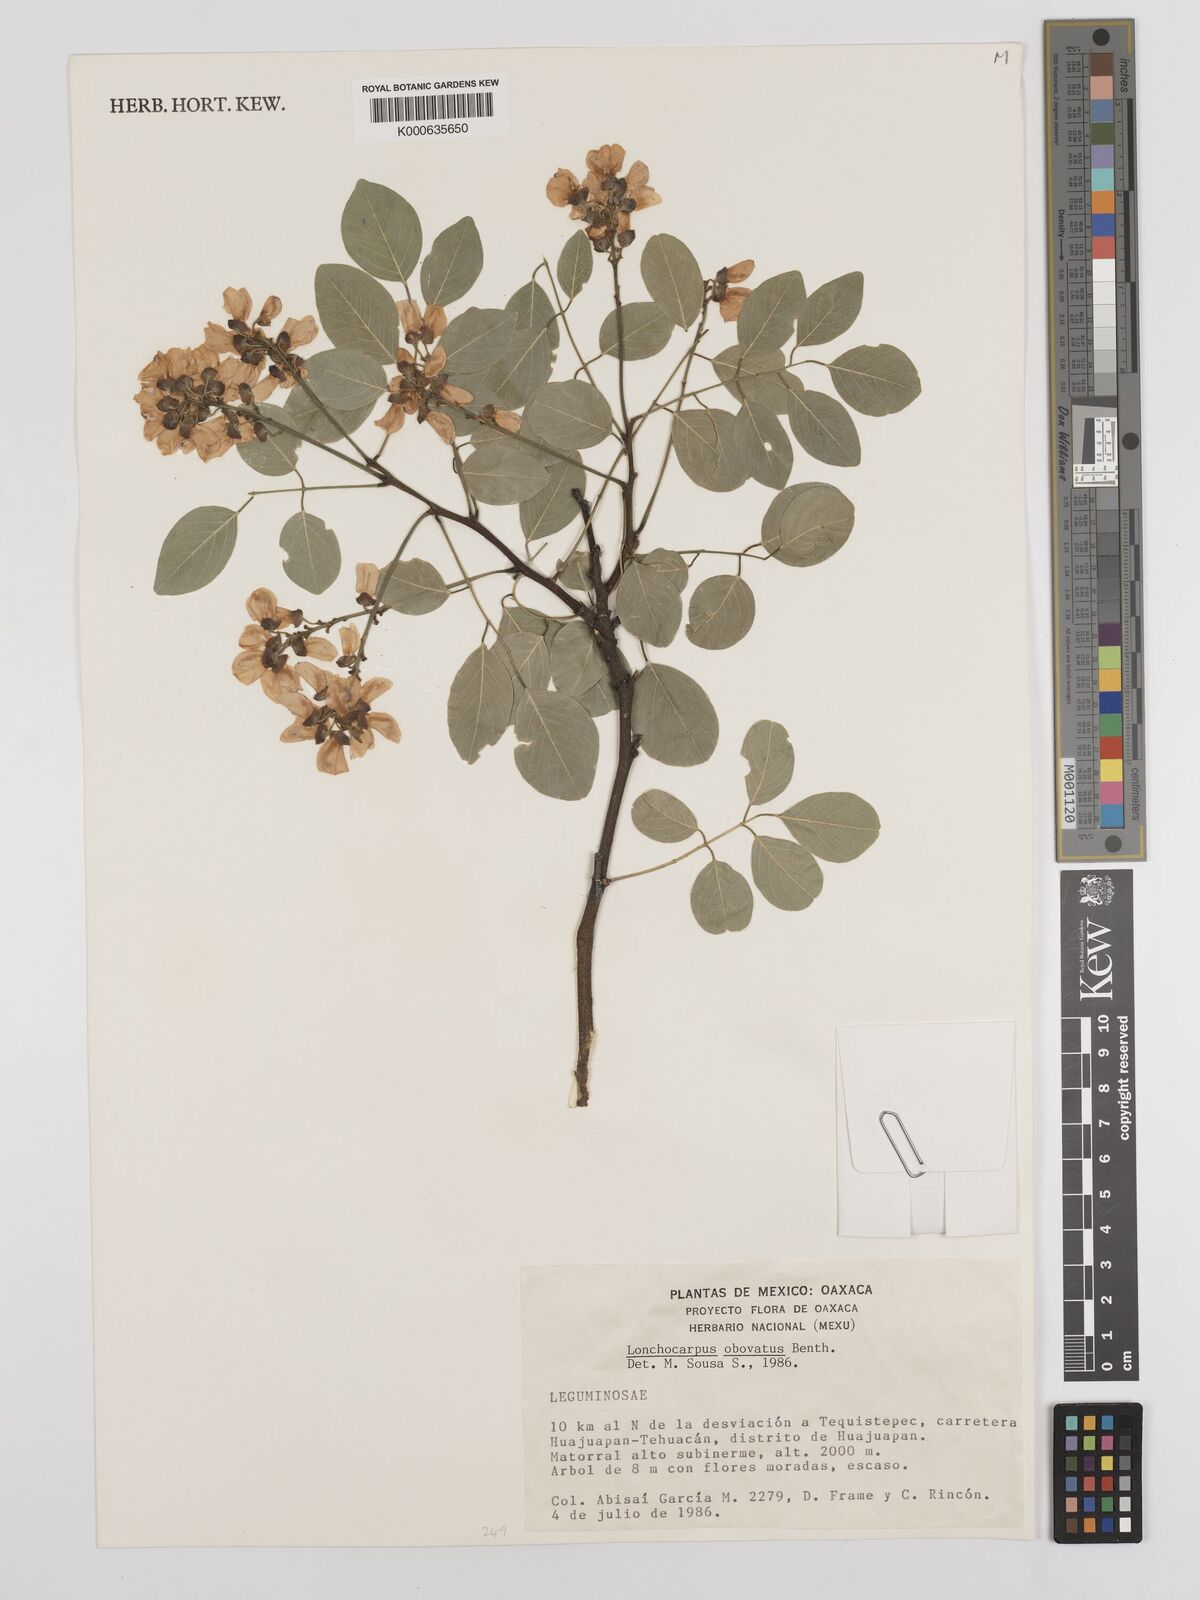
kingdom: Plantae
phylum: Tracheophyta
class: Magnoliopsida
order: Fabales
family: Fabaceae
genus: Lonchocarpus
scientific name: Lonchocarpus obovatus
